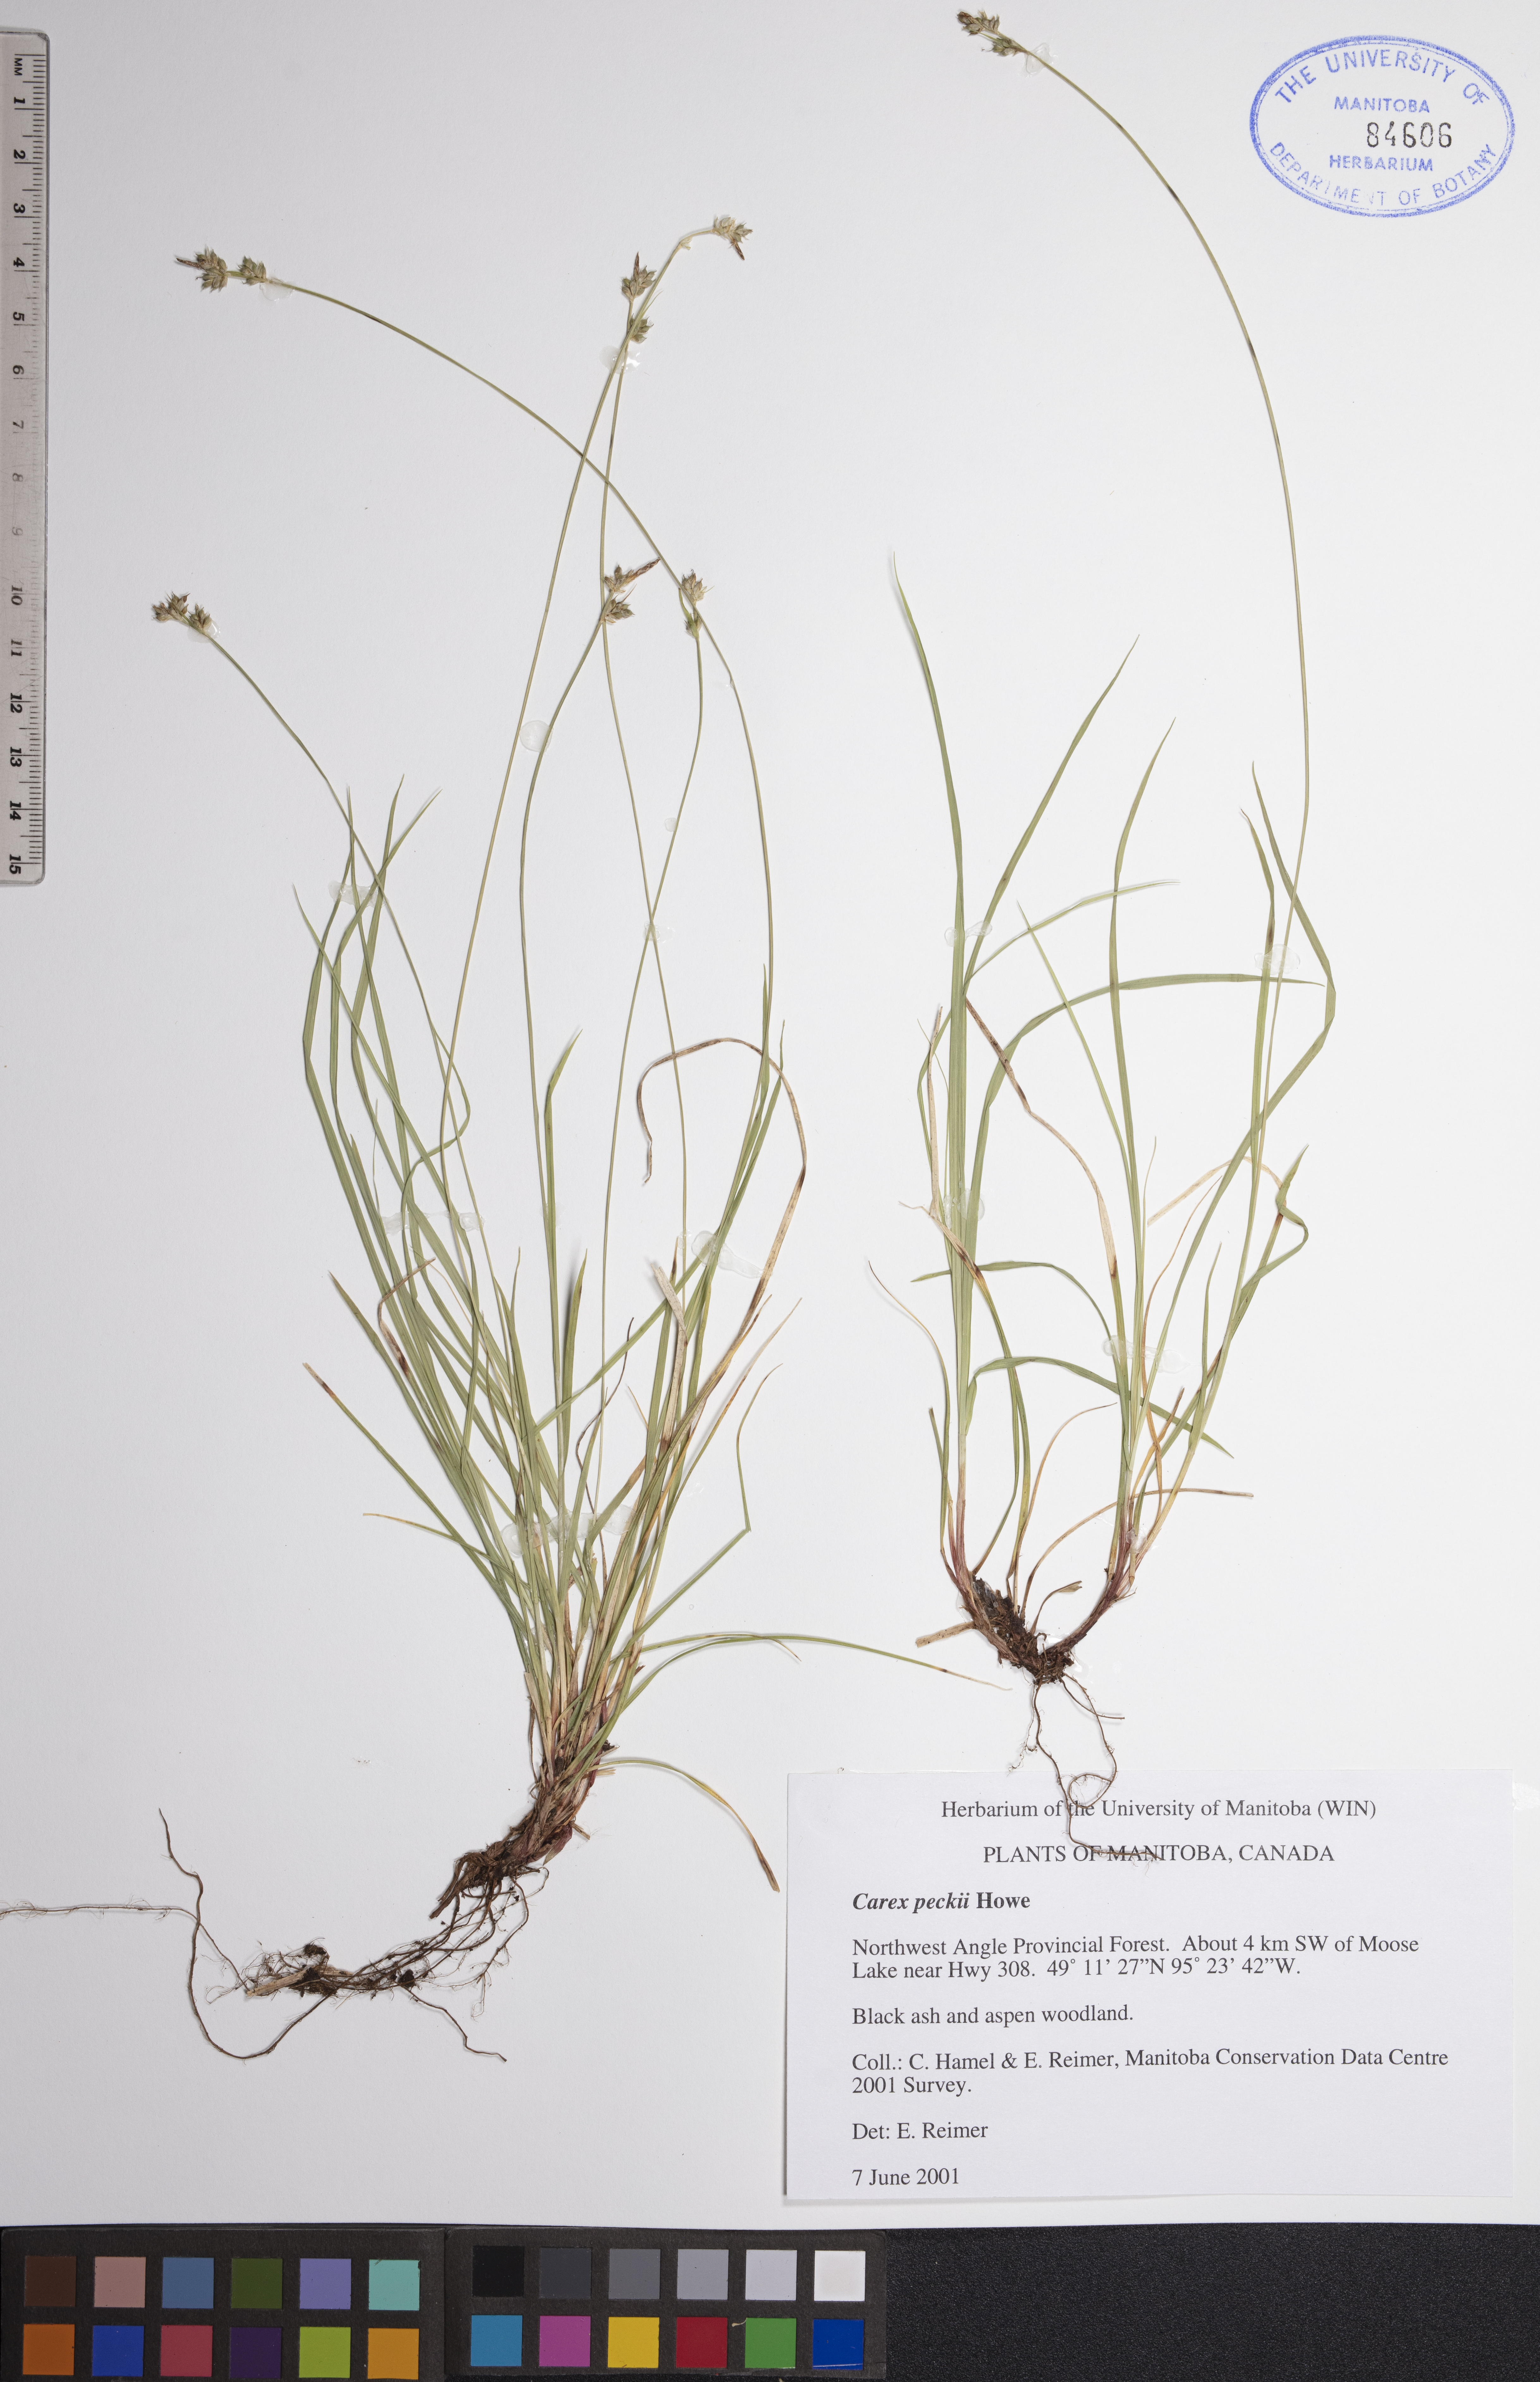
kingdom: Plantae
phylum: Tracheophyta
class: Liliopsida
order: Poales
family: Cyperaceae
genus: Carex
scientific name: Carex peckii
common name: Peck's oak sedge
